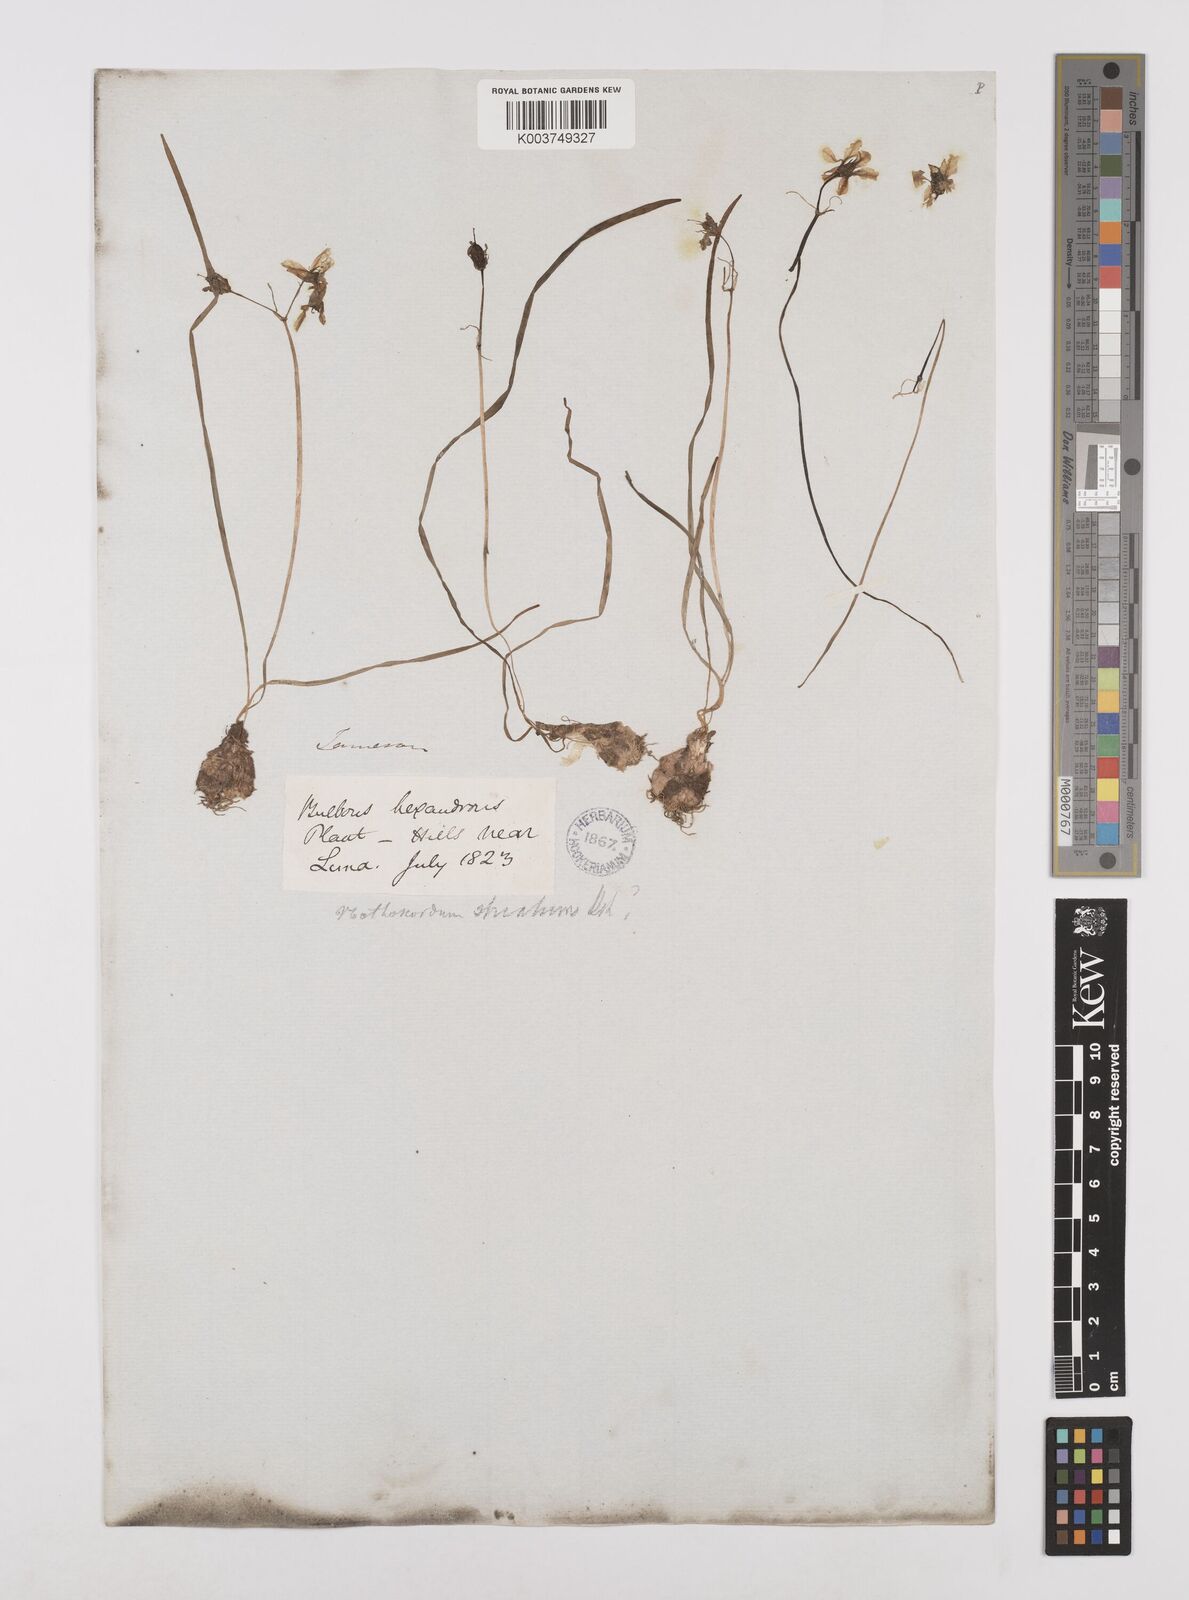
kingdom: Plantae
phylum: Tracheophyta
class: Liliopsida
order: Asparagales
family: Amaryllidaceae
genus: Nothoscordum
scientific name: Nothoscordum bivalve
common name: Crow-poison
